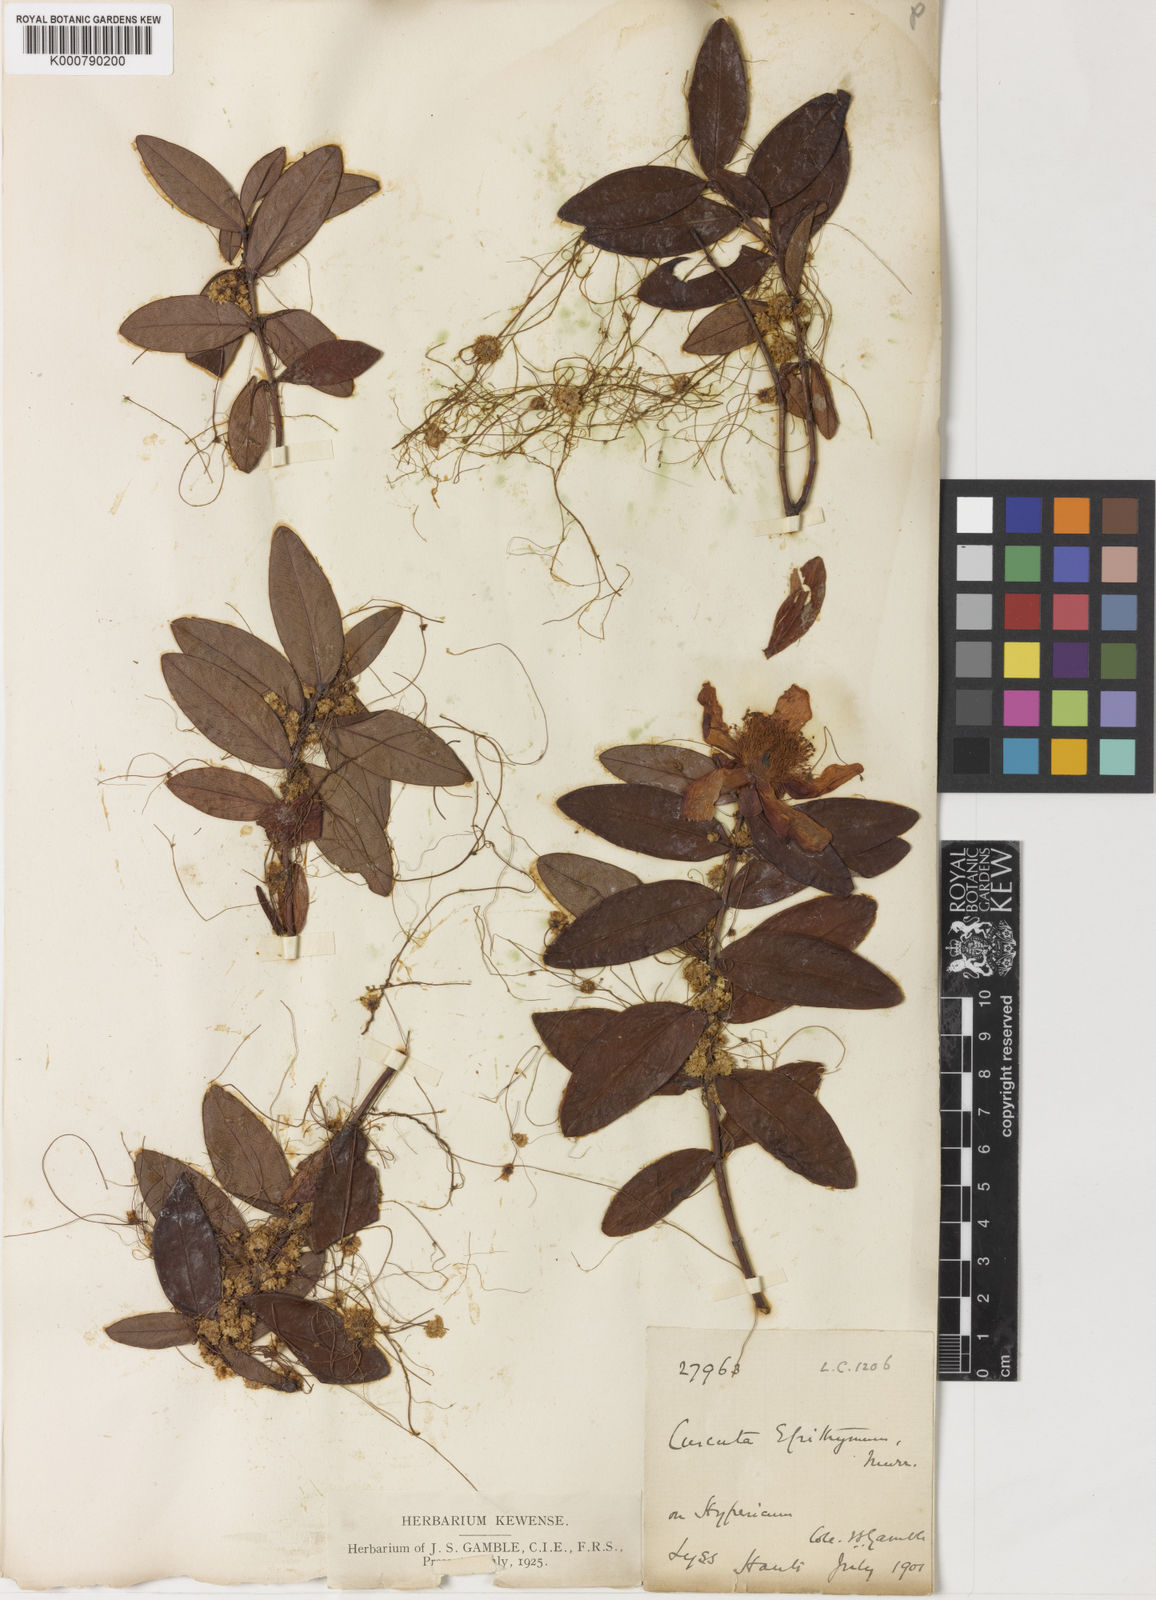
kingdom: Plantae
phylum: Tracheophyta
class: Magnoliopsida
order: Solanales
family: Convolvulaceae
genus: Cuscuta
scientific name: Cuscuta epithymum
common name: Clover dodder
